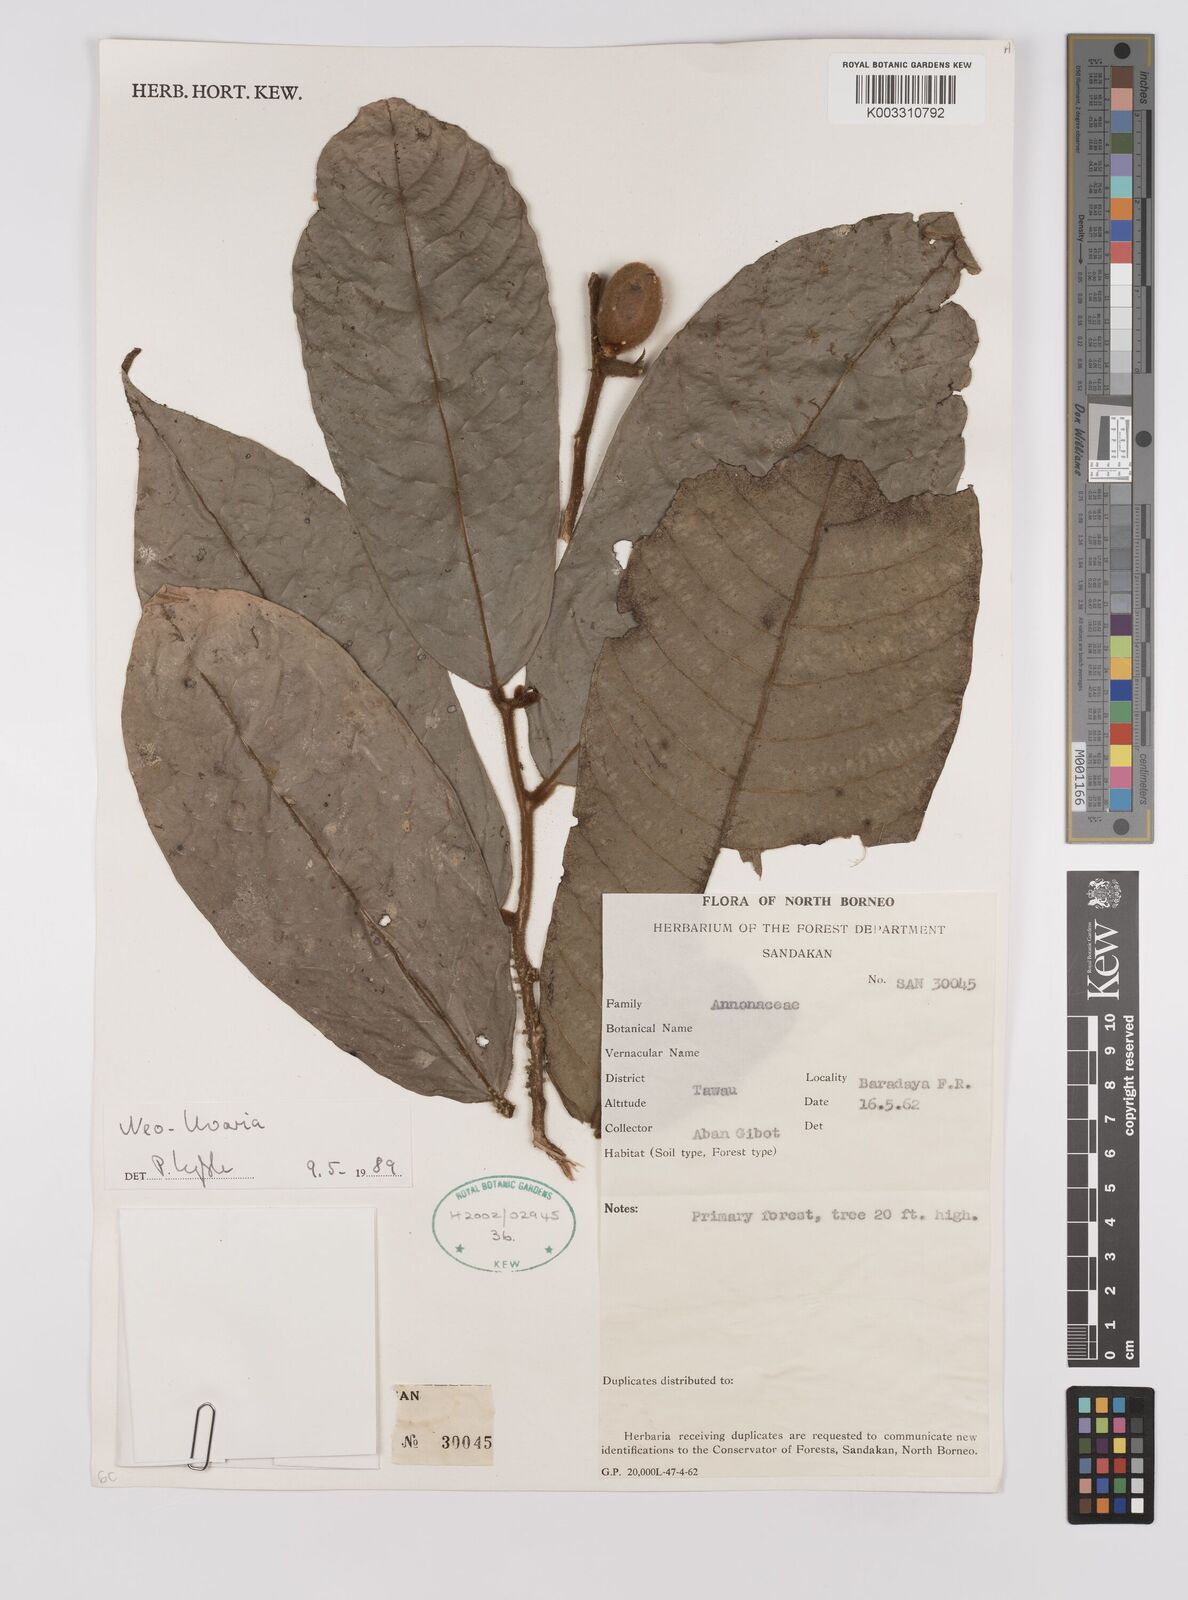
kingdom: Plantae
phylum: Tracheophyta
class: Magnoliopsida
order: Magnoliales
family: Annonaceae
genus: Neo-uvaria
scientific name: Neo-uvaria
